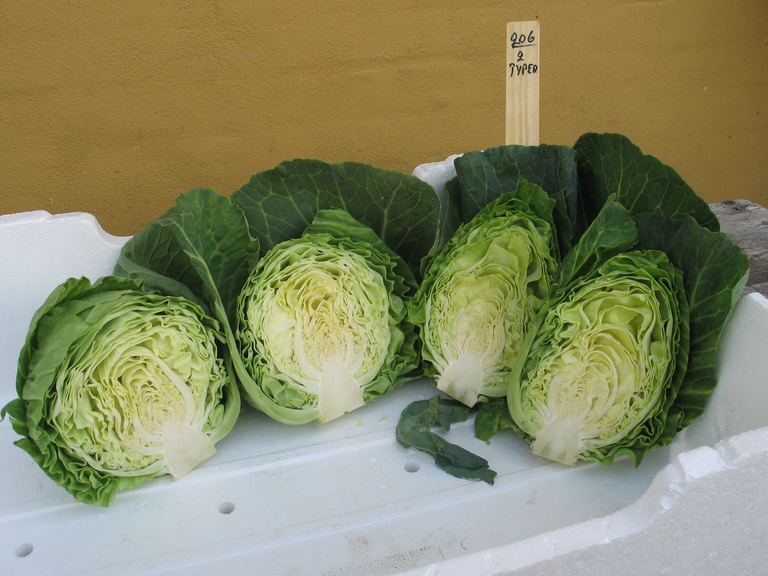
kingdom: Plantae
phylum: Tracheophyta
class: Magnoliopsida
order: Brassicales
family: Brassicaceae
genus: Brassica
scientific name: Brassica oleracea
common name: Cabbage
